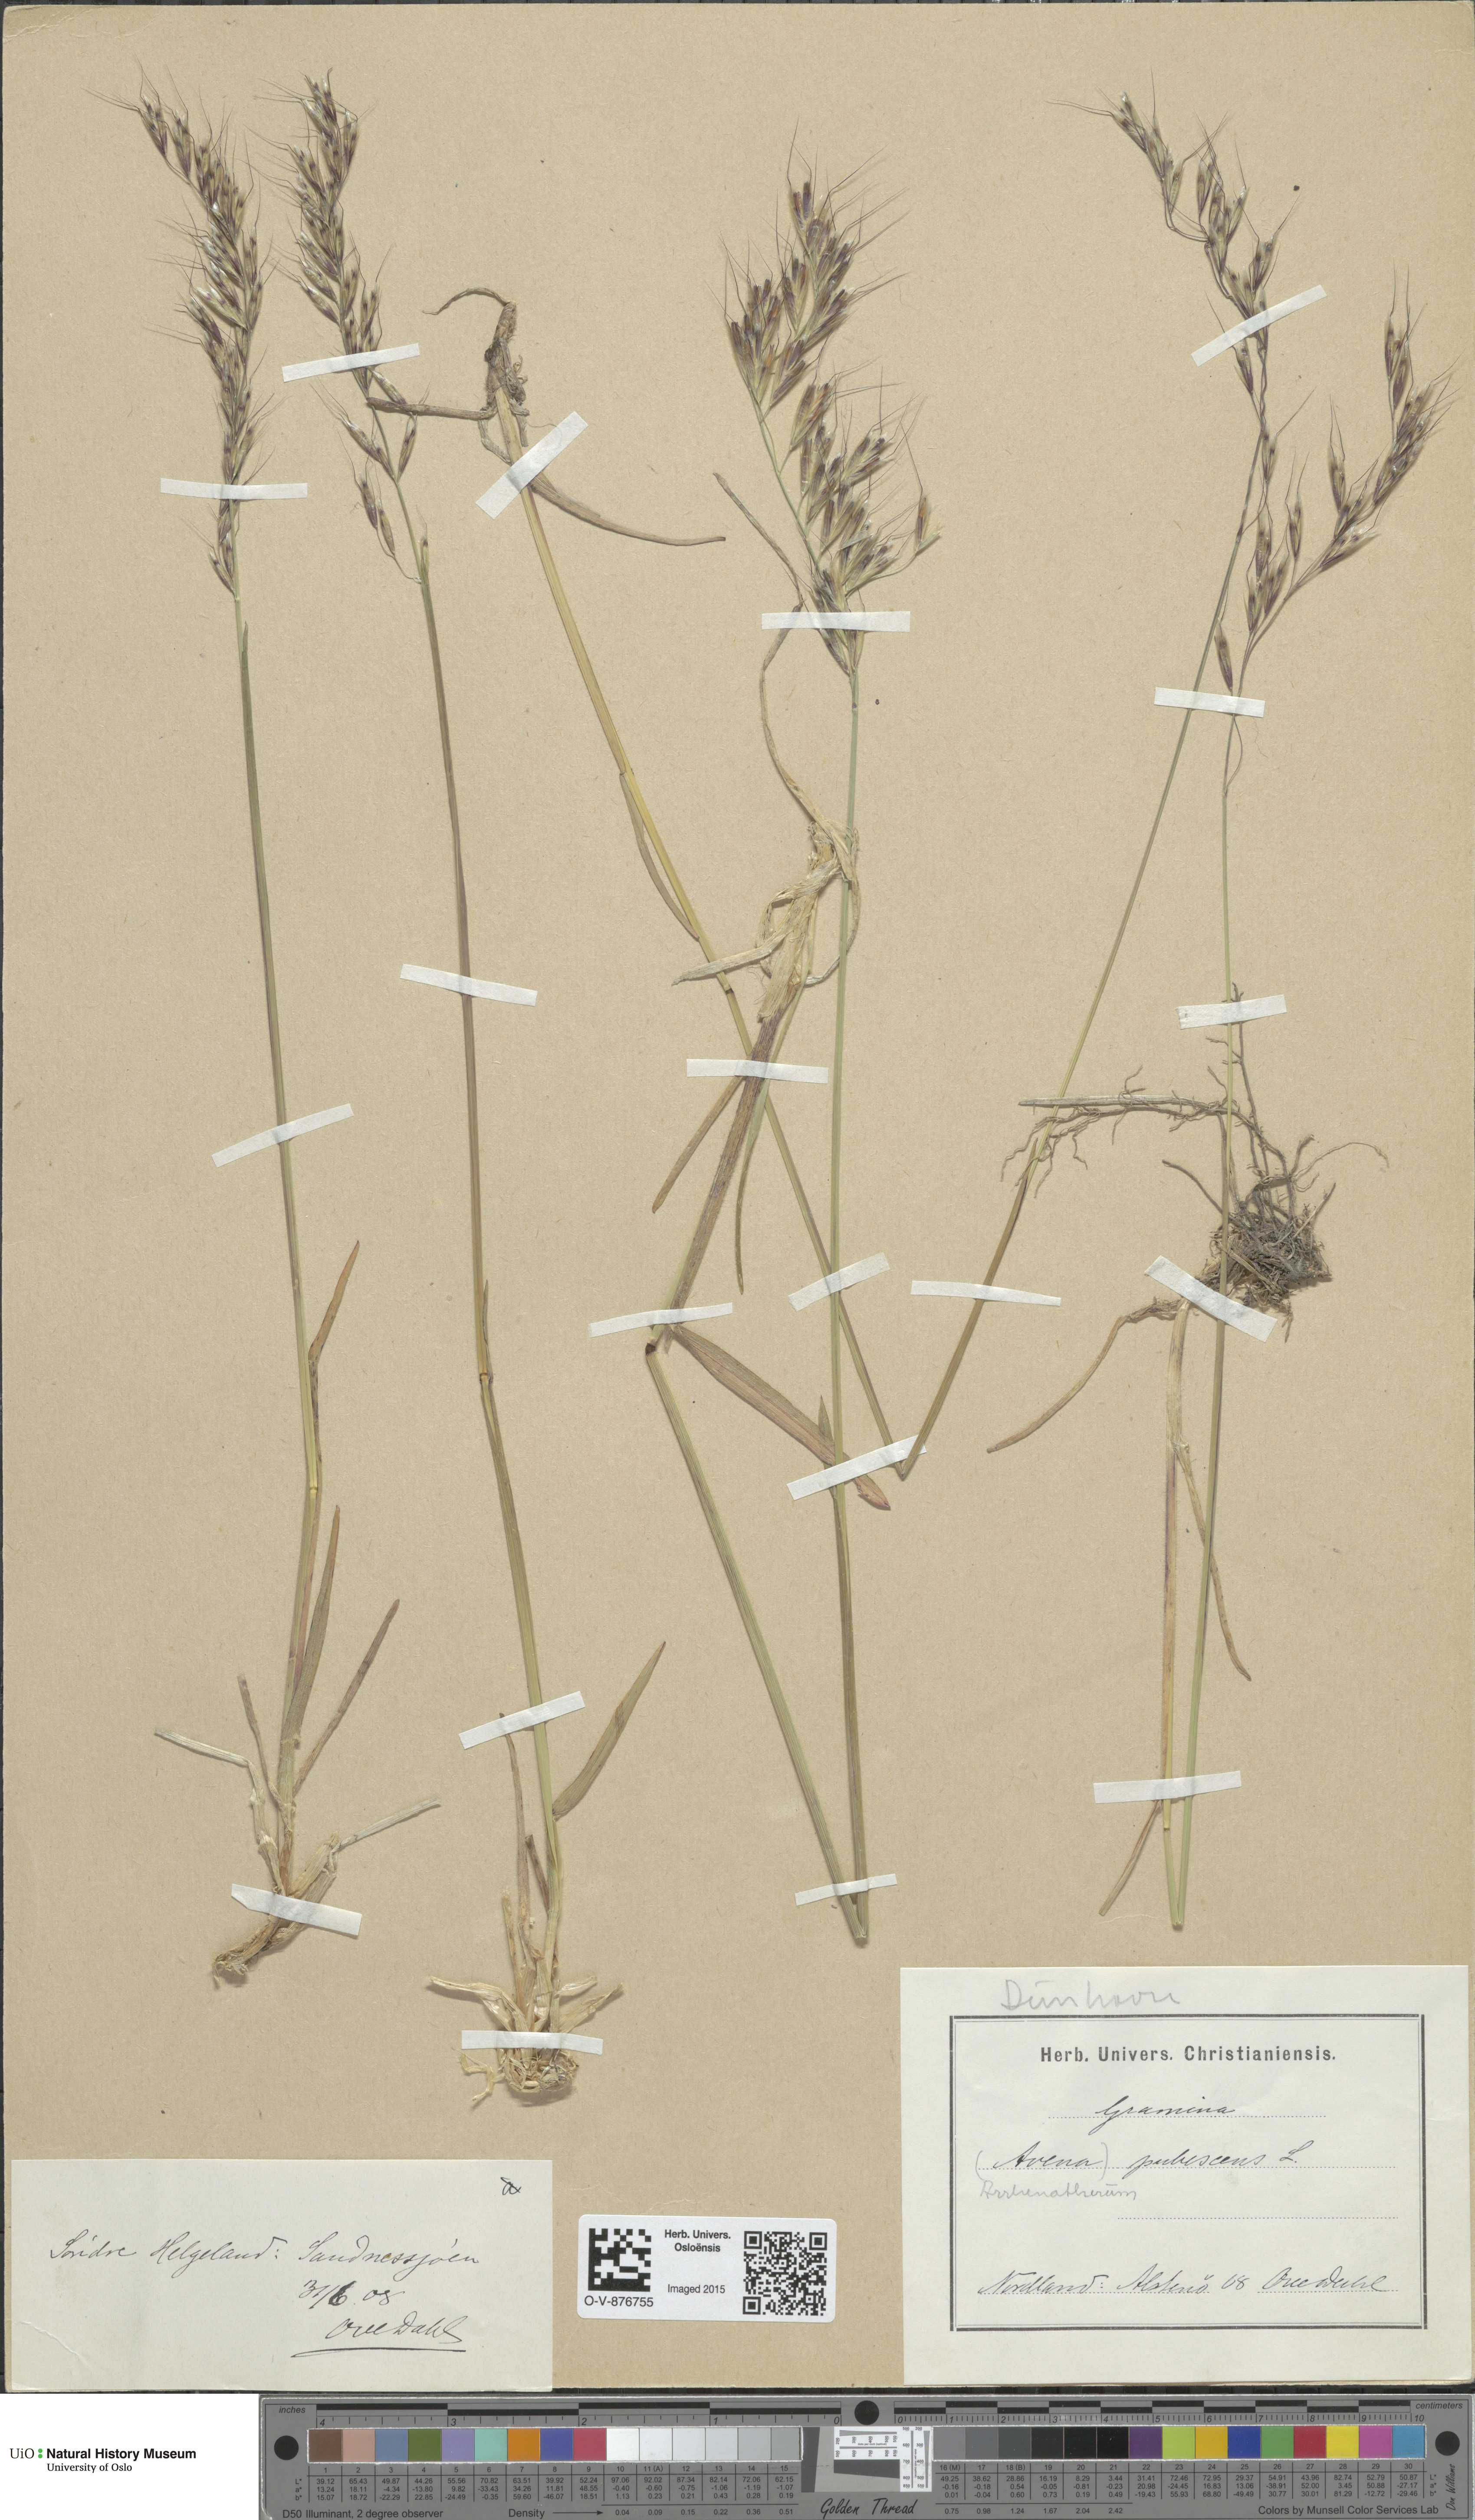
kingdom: Plantae
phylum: Tracheophyta
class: Liliopsida
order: Poales
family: Poaceae
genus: Avenula
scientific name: Avenula pubescens
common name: Downy alpine oatgrass
